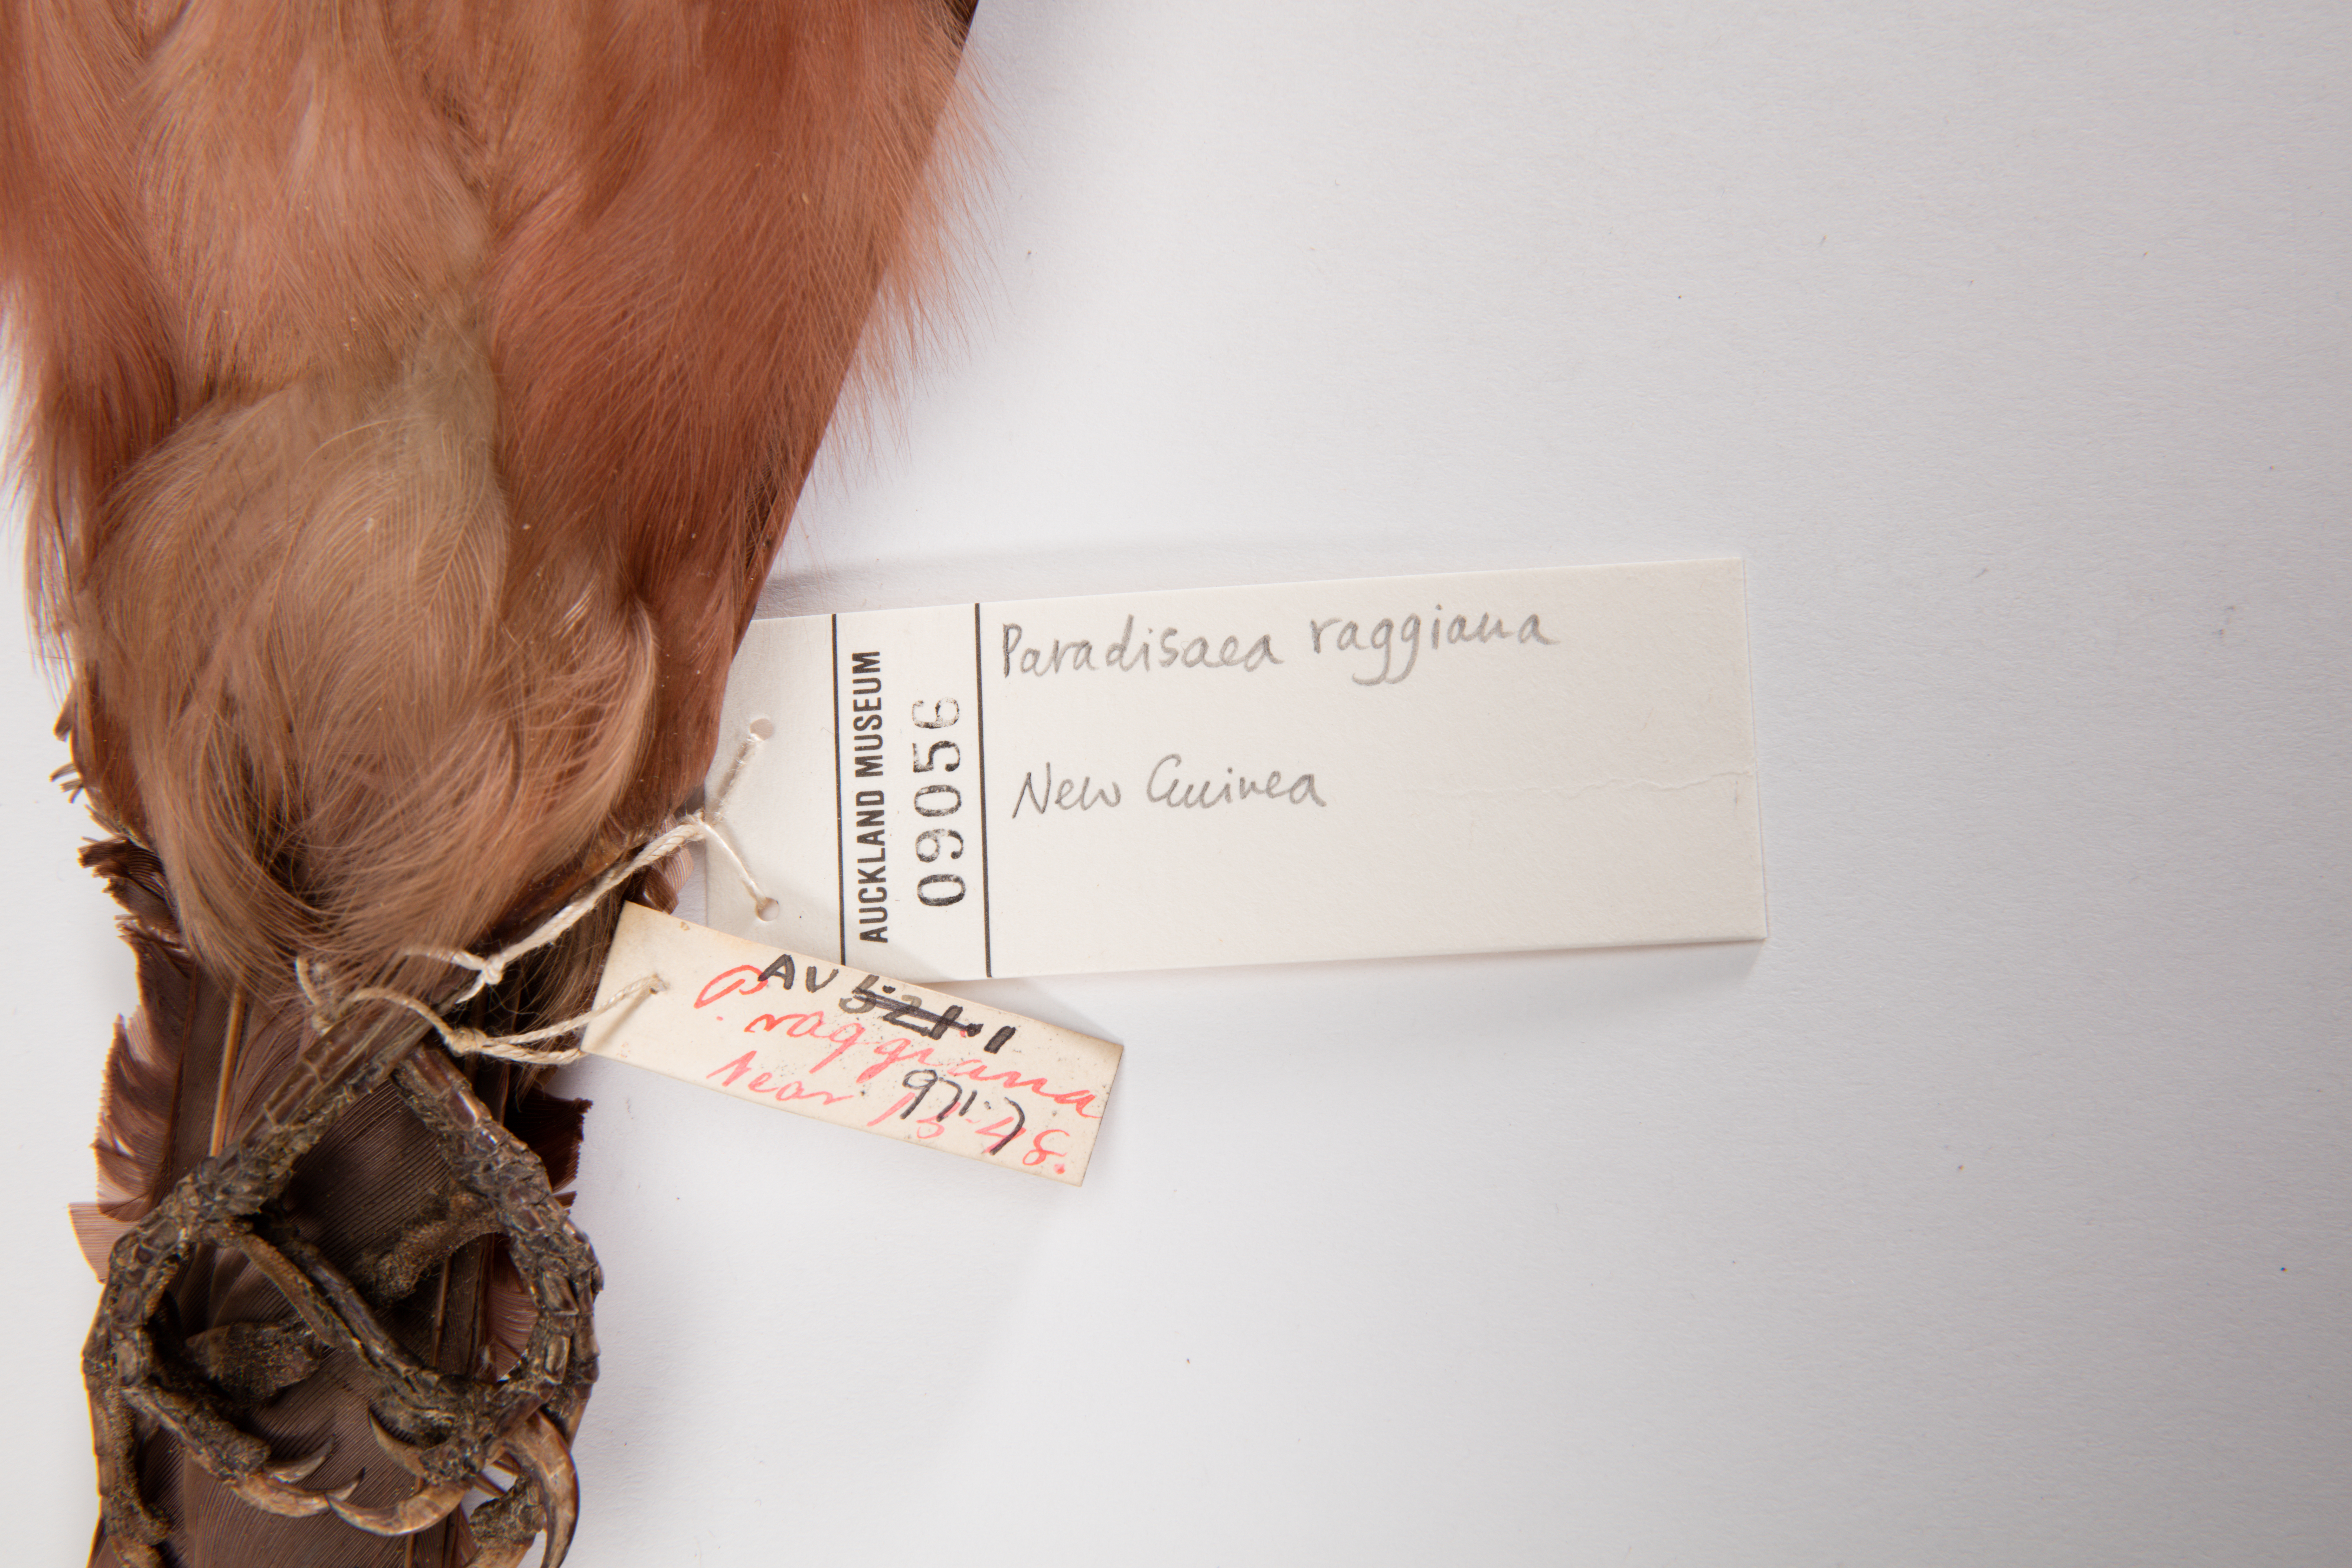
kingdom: Animalia
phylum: Chordata
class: Aves
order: Passeriformes
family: Paradisaeidae
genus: Paradisaea
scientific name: Paradisaea raggiana
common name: Raggiana bird-of-paradise
